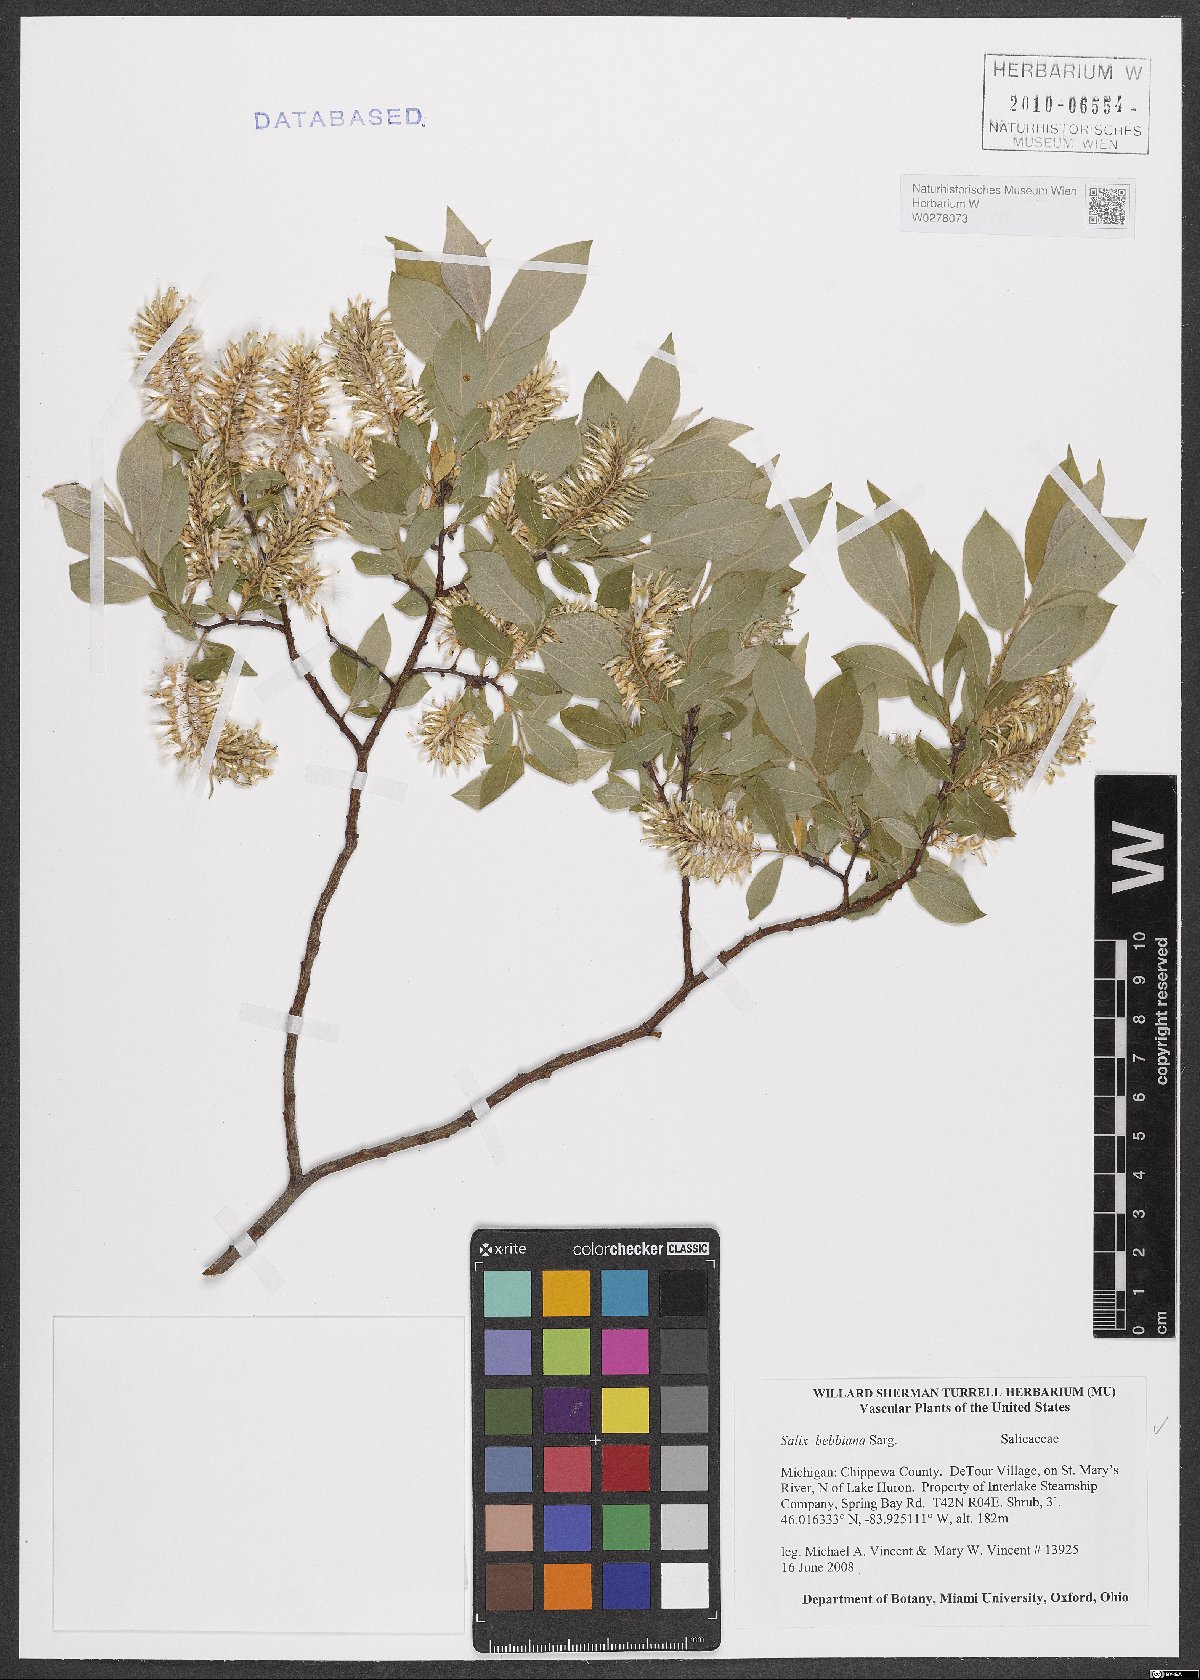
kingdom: Plantae
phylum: Tracheophyta
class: Magnoliopsida
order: Malpighiales
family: Salicaceae
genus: Salix
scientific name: Salix bebbiana
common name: Bebb's willow
